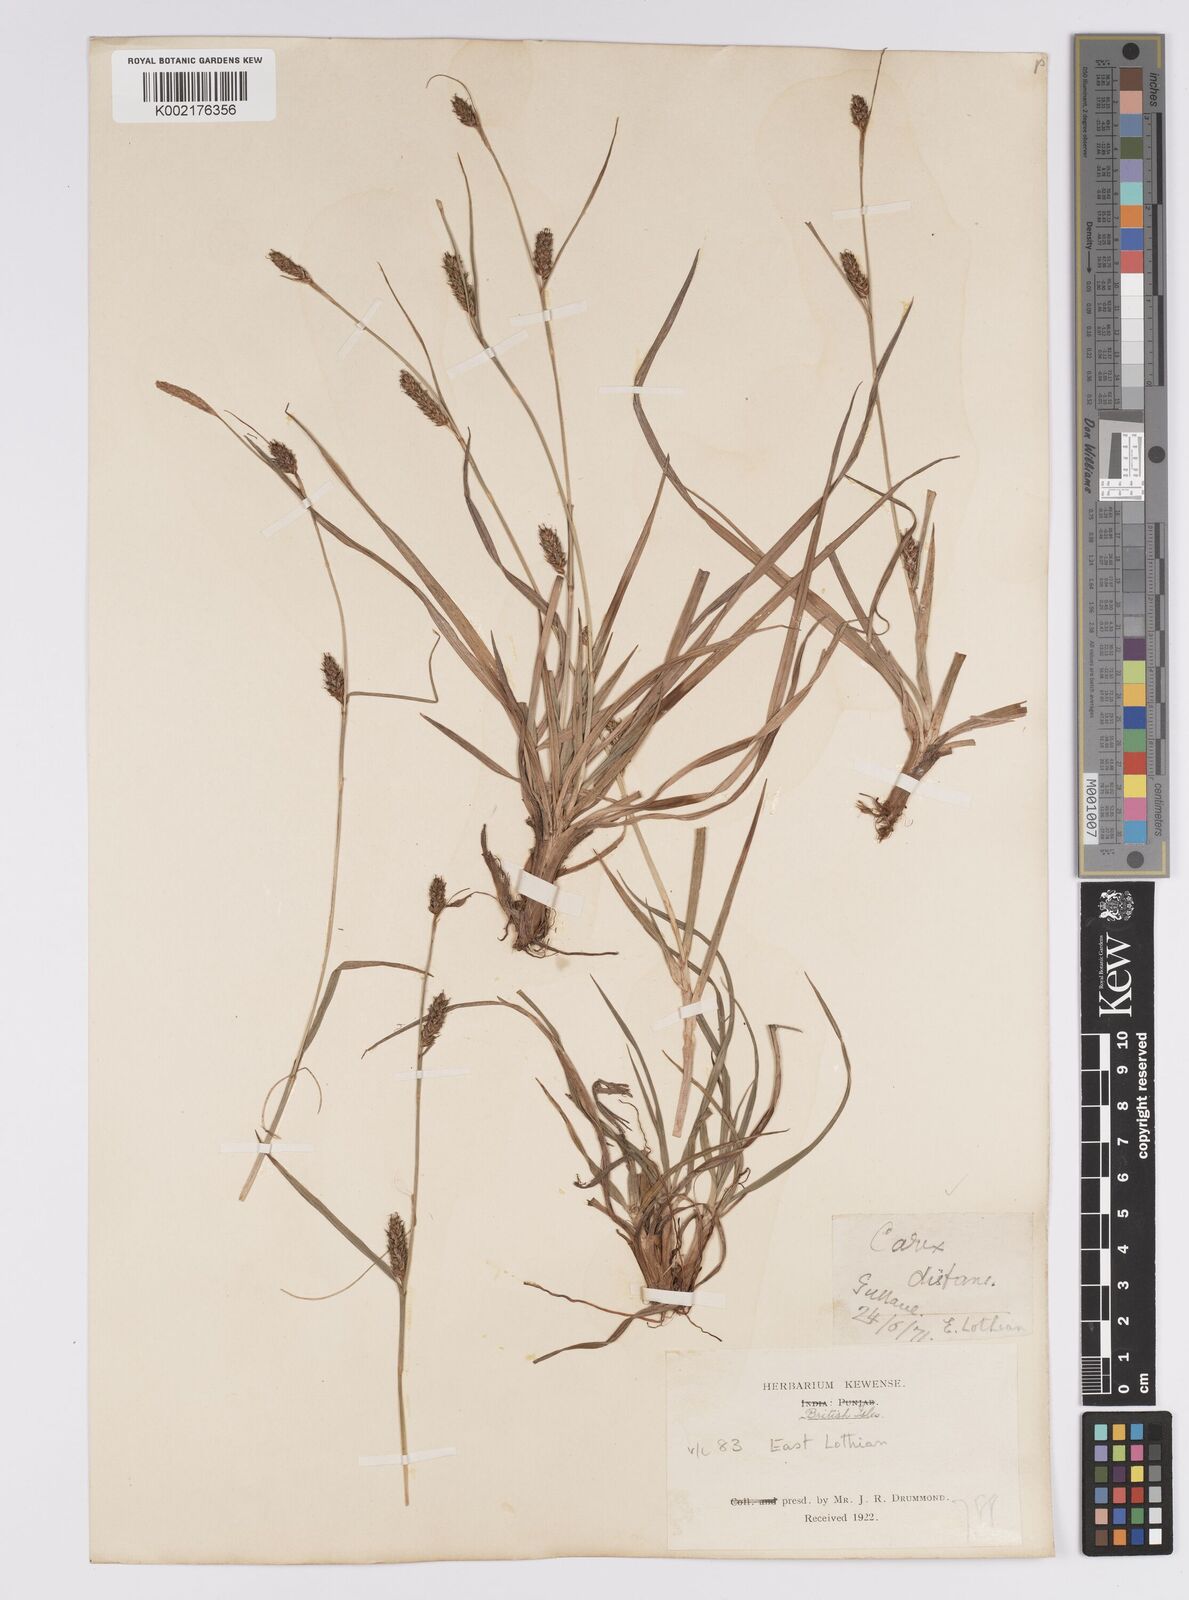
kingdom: Plantae
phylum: Tracheophyta
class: Liliopsida
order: Poales
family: Cyperaceae
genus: Carex
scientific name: Carex distans
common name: Distant sedge
